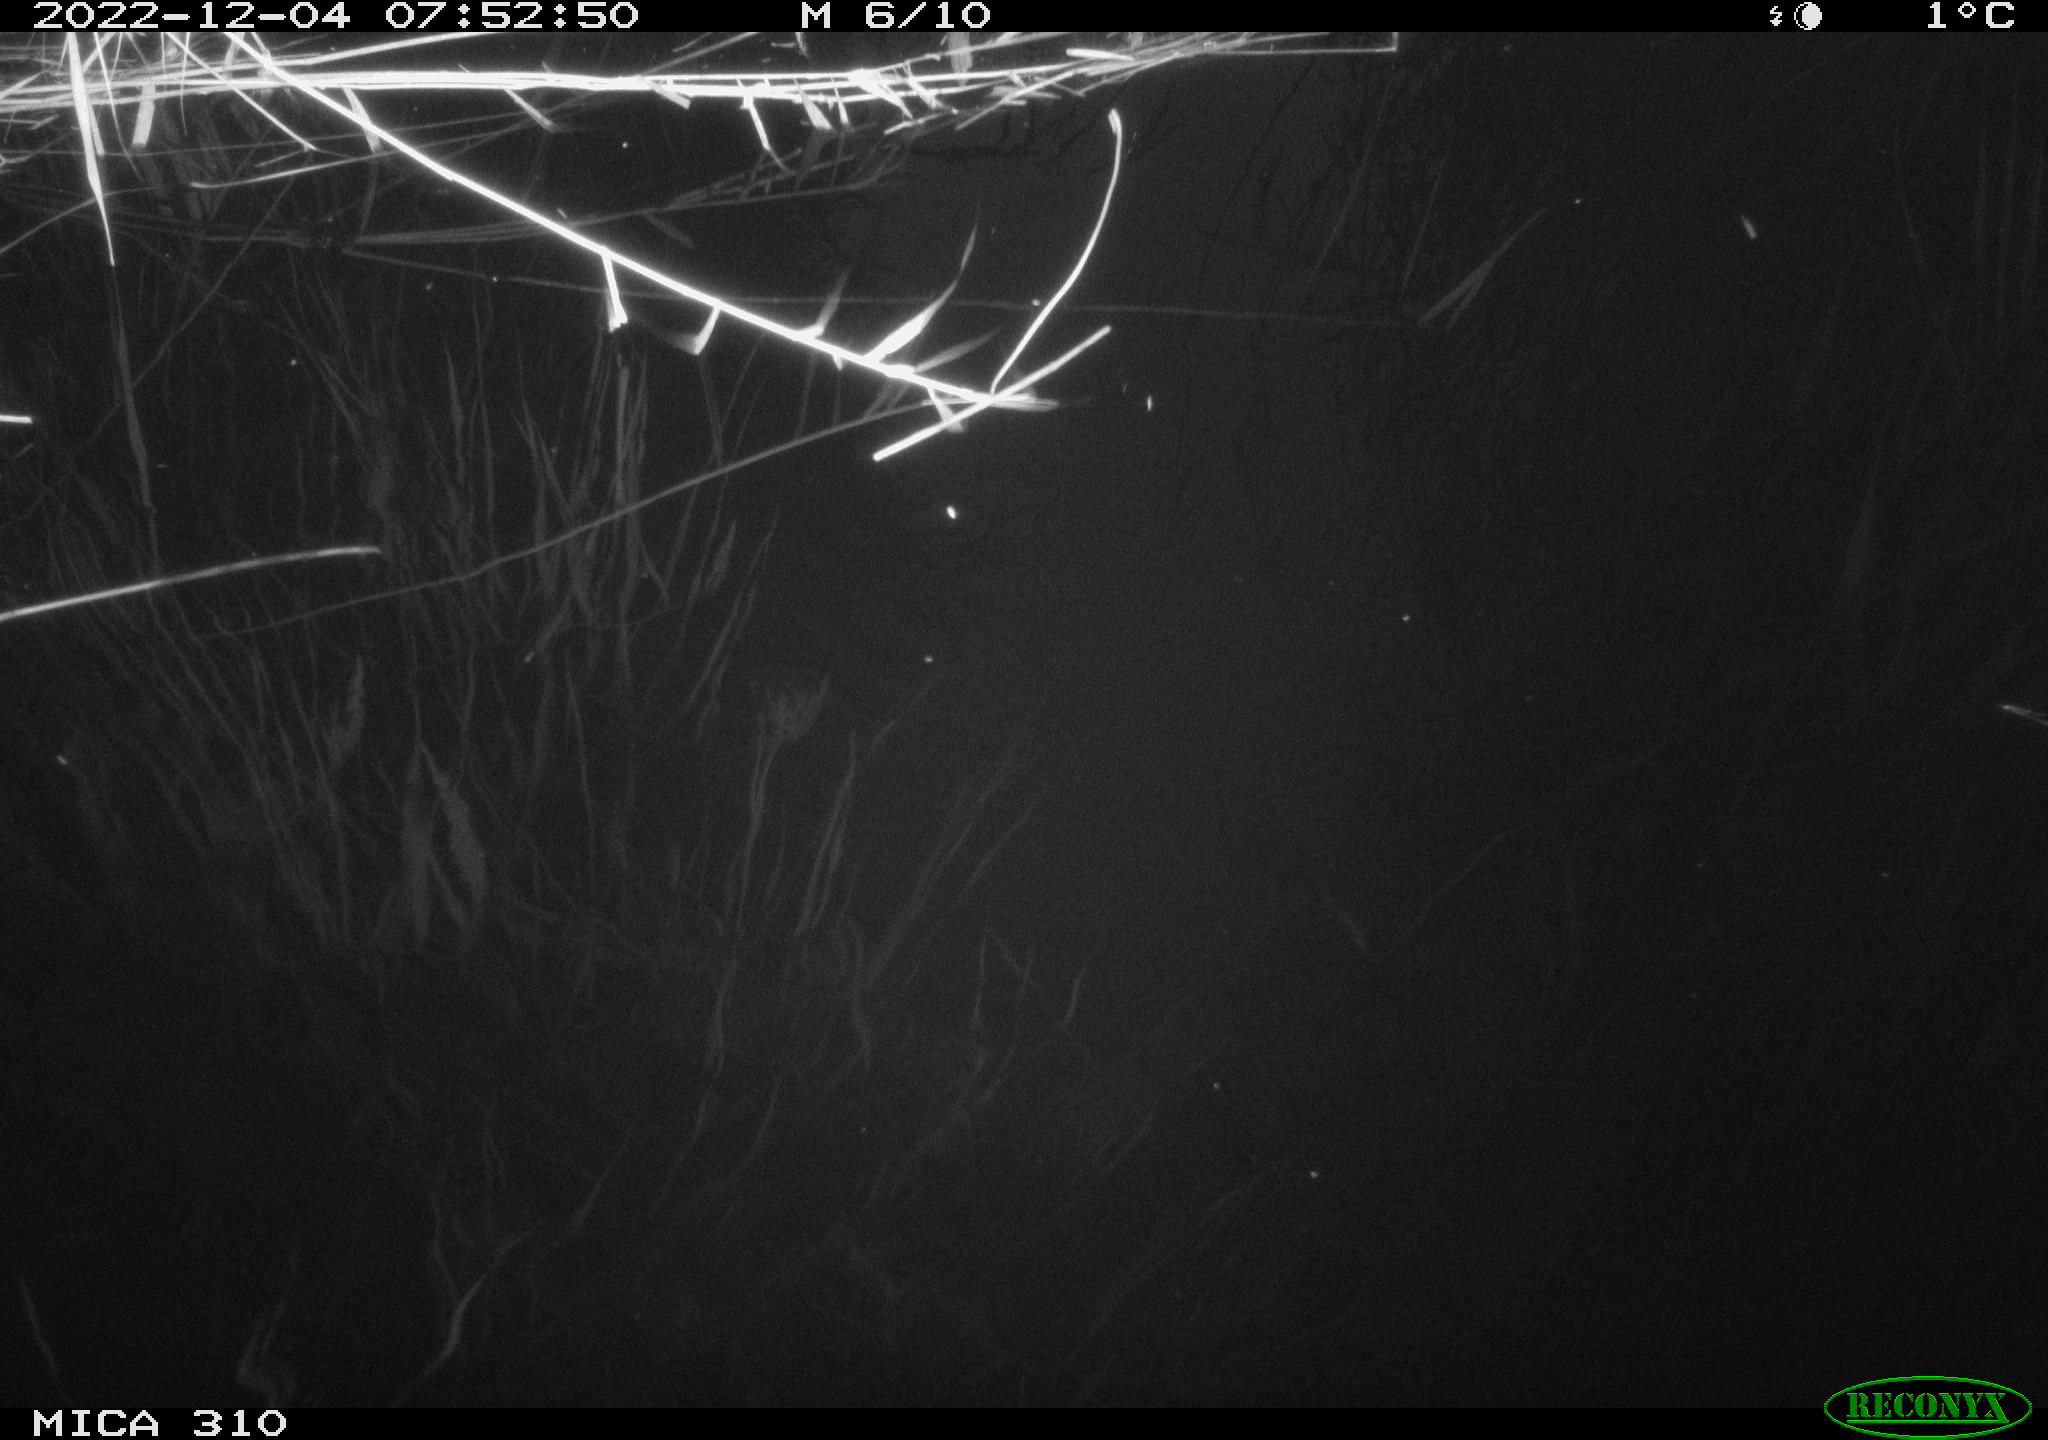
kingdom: Animalia
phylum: Chordata
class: Aves
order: Gruiformes
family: Rallidae
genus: Gallinula
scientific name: Gallinula chloropus
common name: Common moorhen
